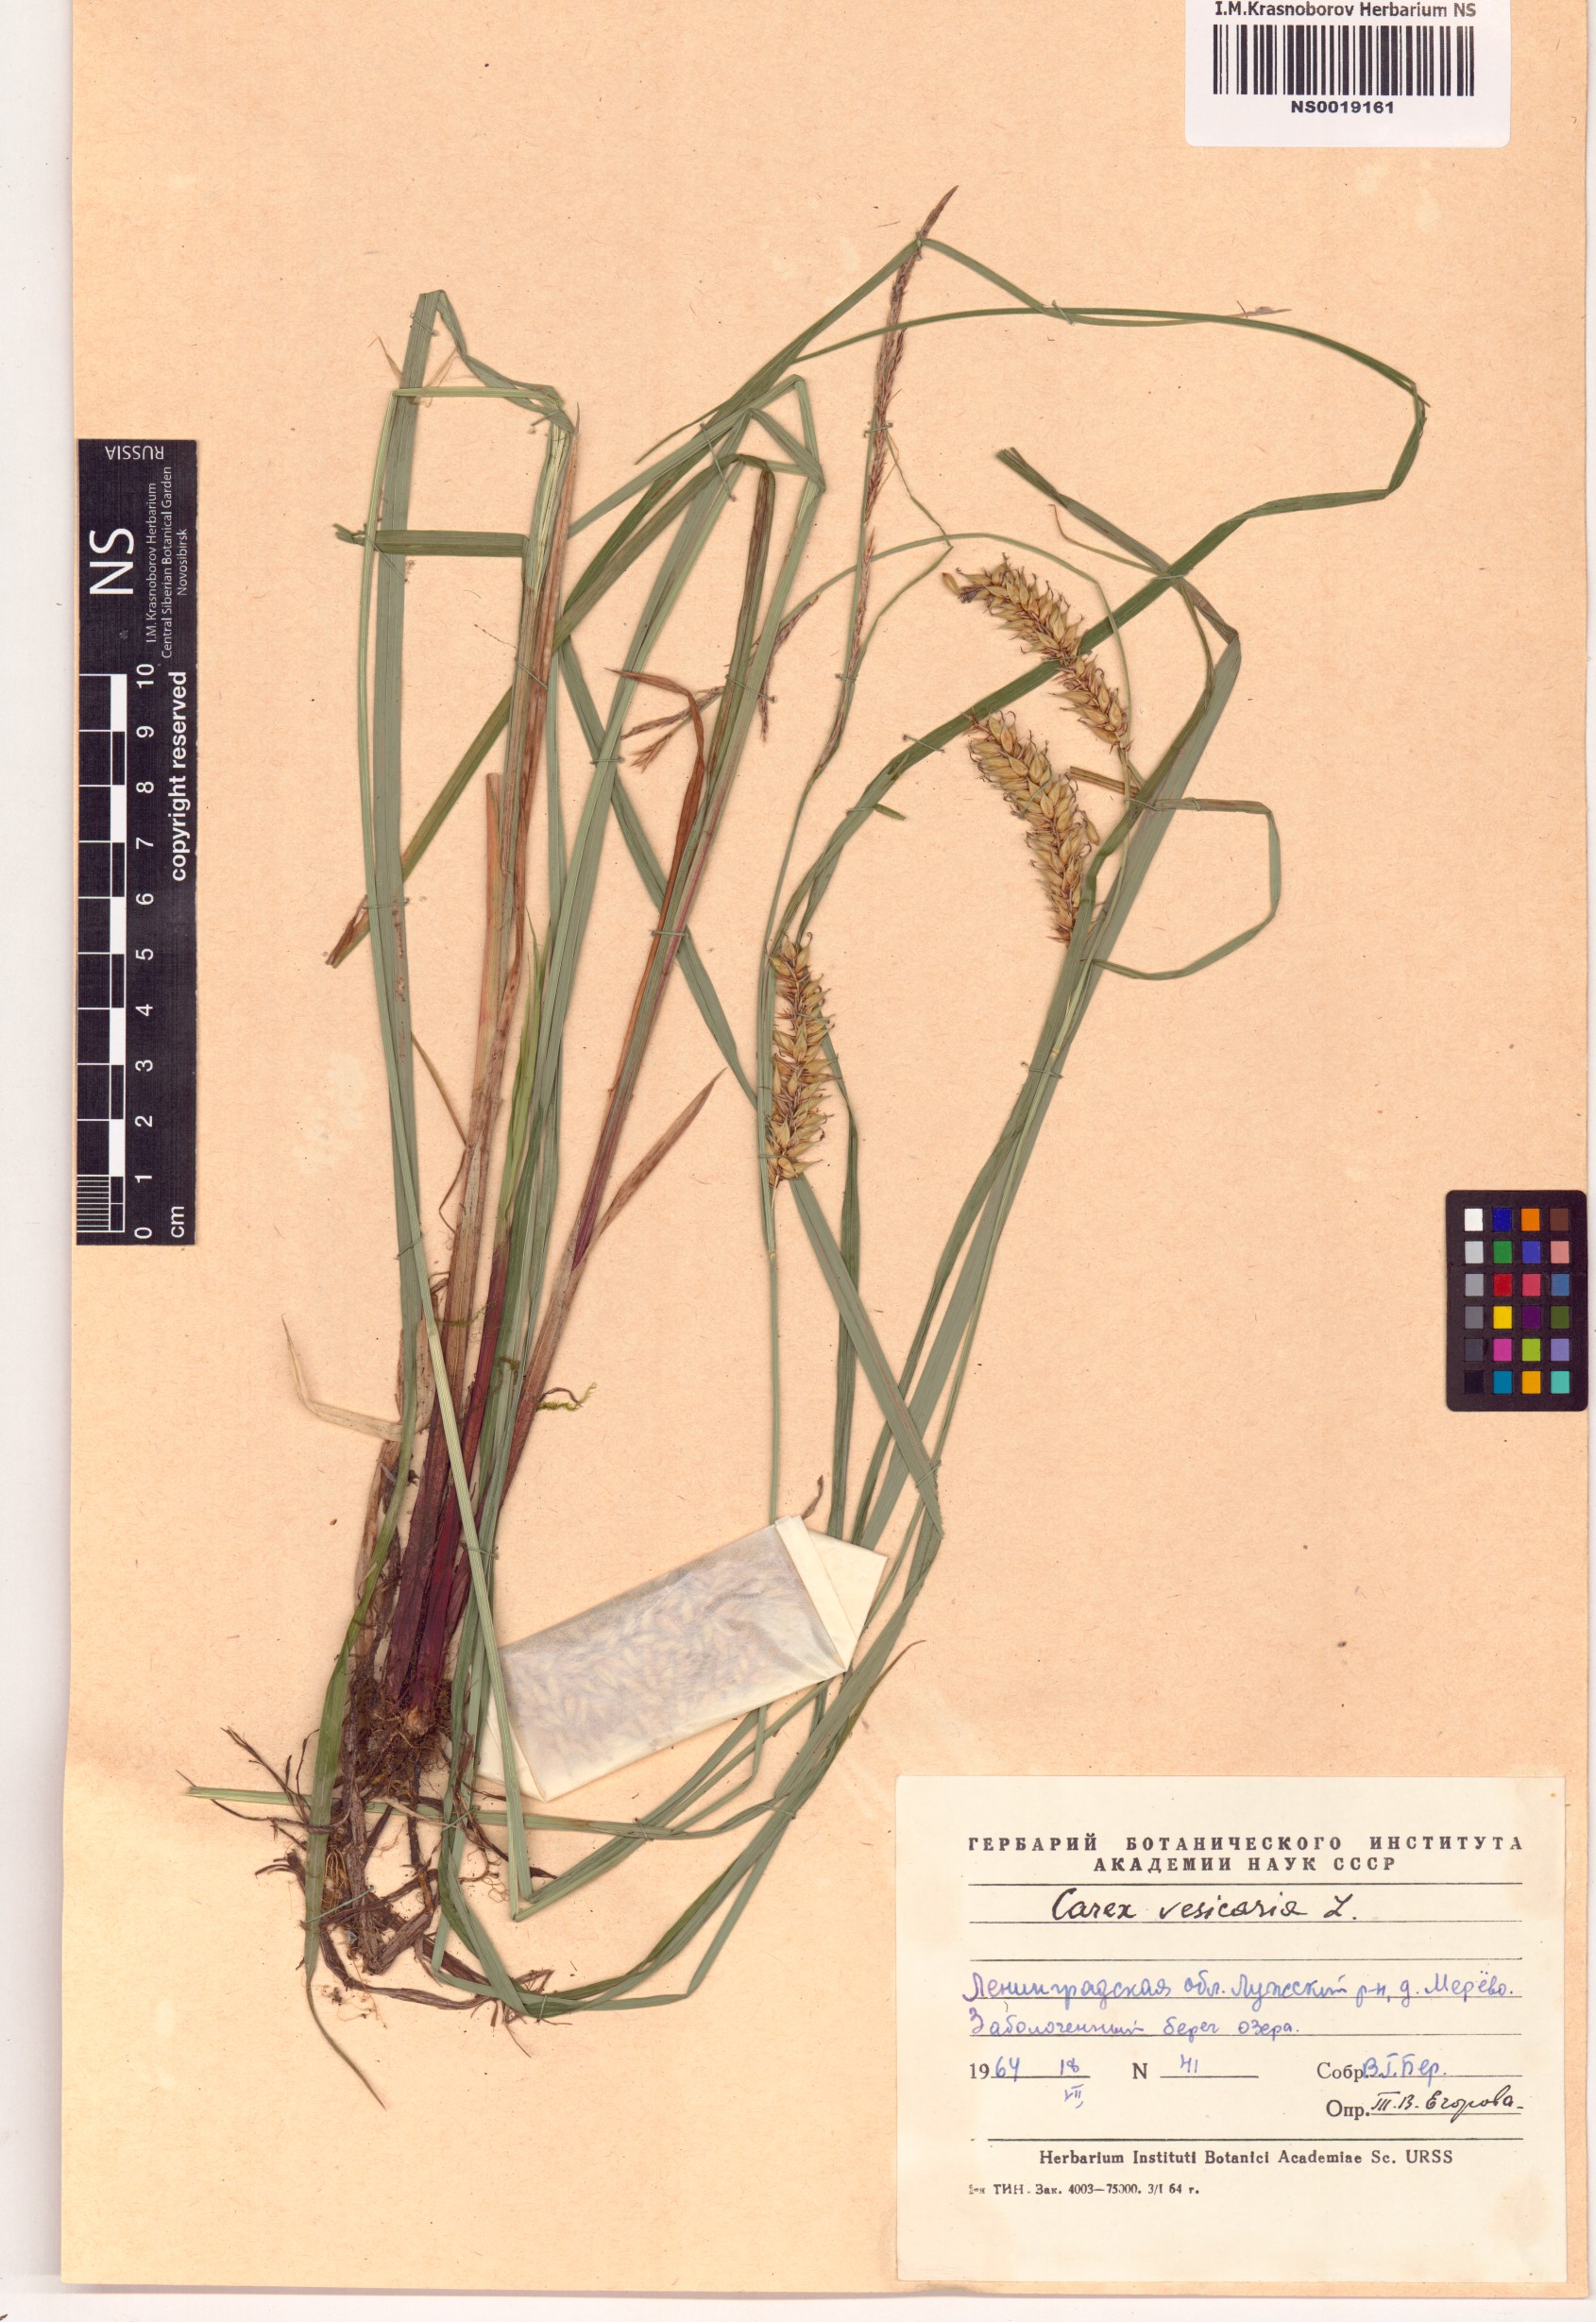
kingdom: Plantae
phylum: Tracheophyta
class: Liliopsida
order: Poales
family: Cyperaceae
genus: Carex
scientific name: Carex vesicaria
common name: Bladder-sedge
